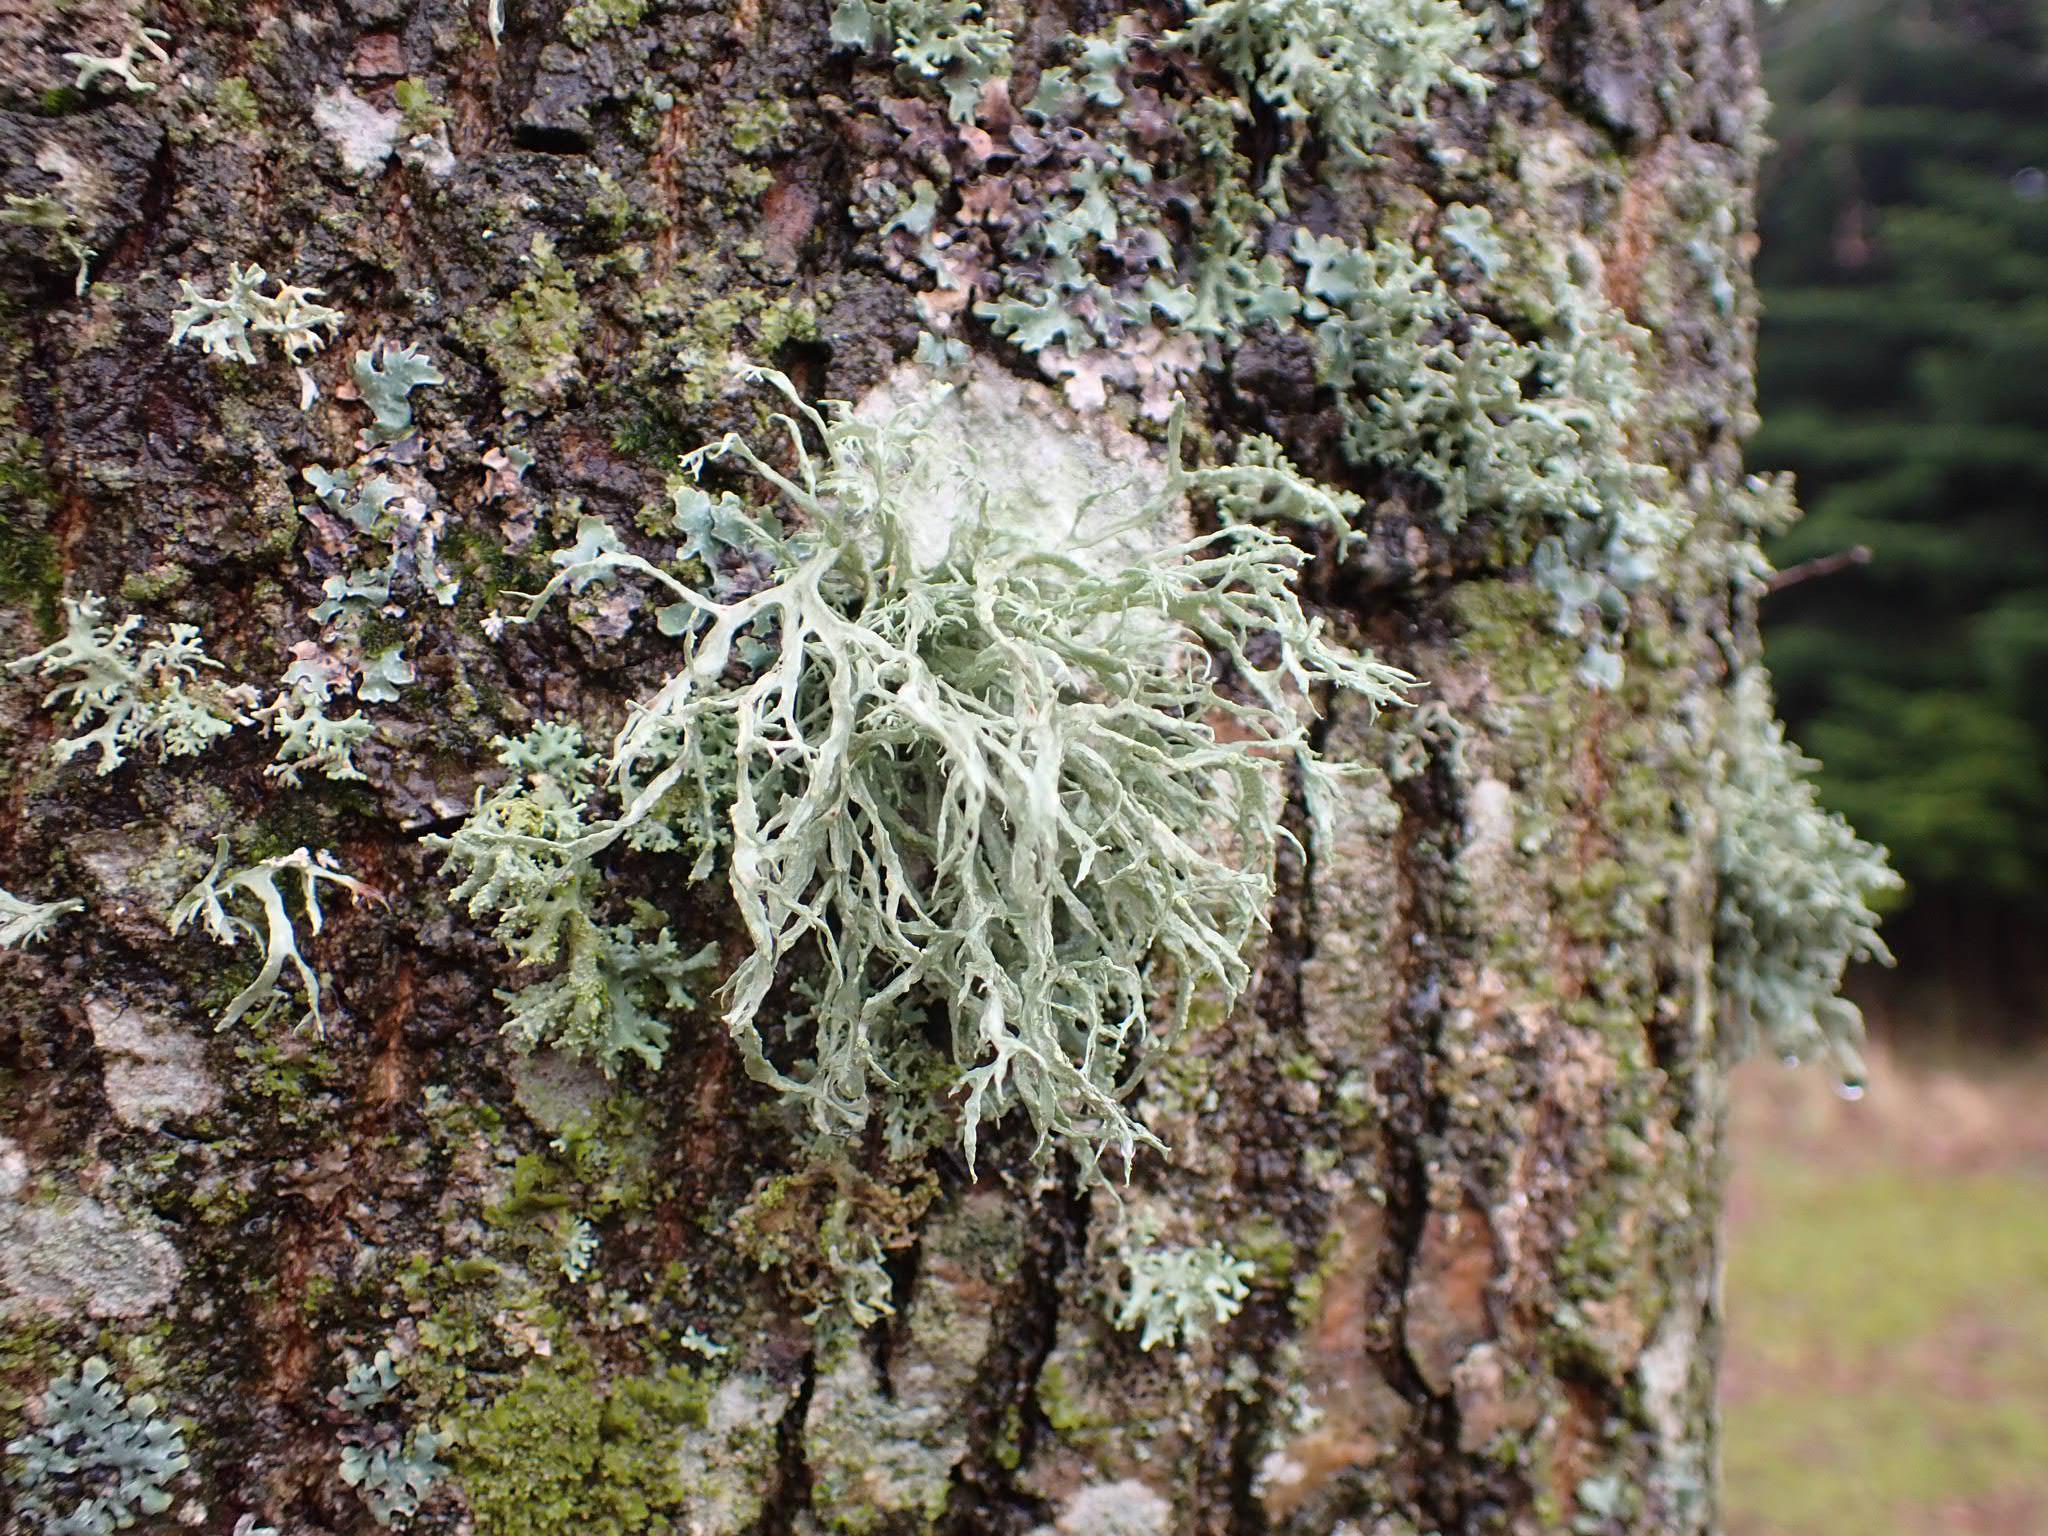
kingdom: Fungi
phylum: Ascomycota
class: Lecanoromycetes
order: Lecanorales
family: Ramalinaceae
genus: Ramalina
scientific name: Ramalina farinacea
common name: melet grenlav
